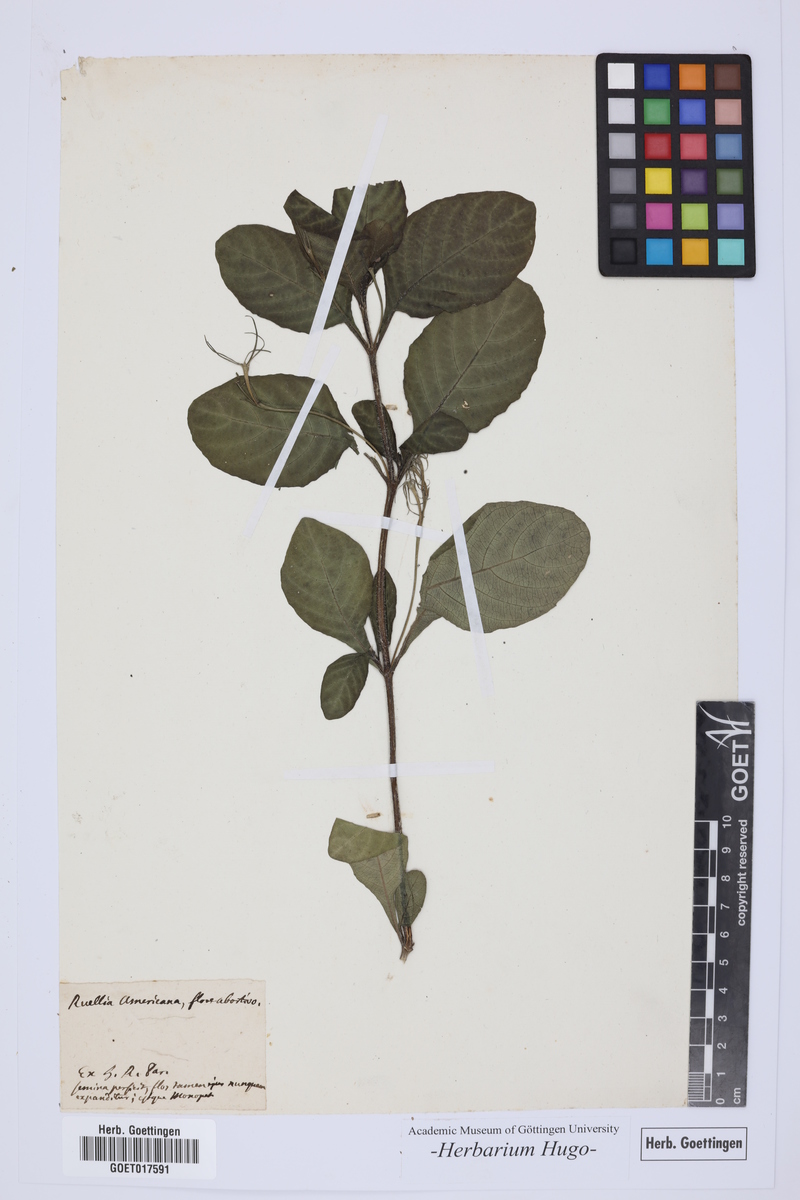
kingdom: Plantae
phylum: Tracheophyta
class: Magnoliopsida
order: Lamiales
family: Acanthaceae
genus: Ruellia
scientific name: Ruellia
